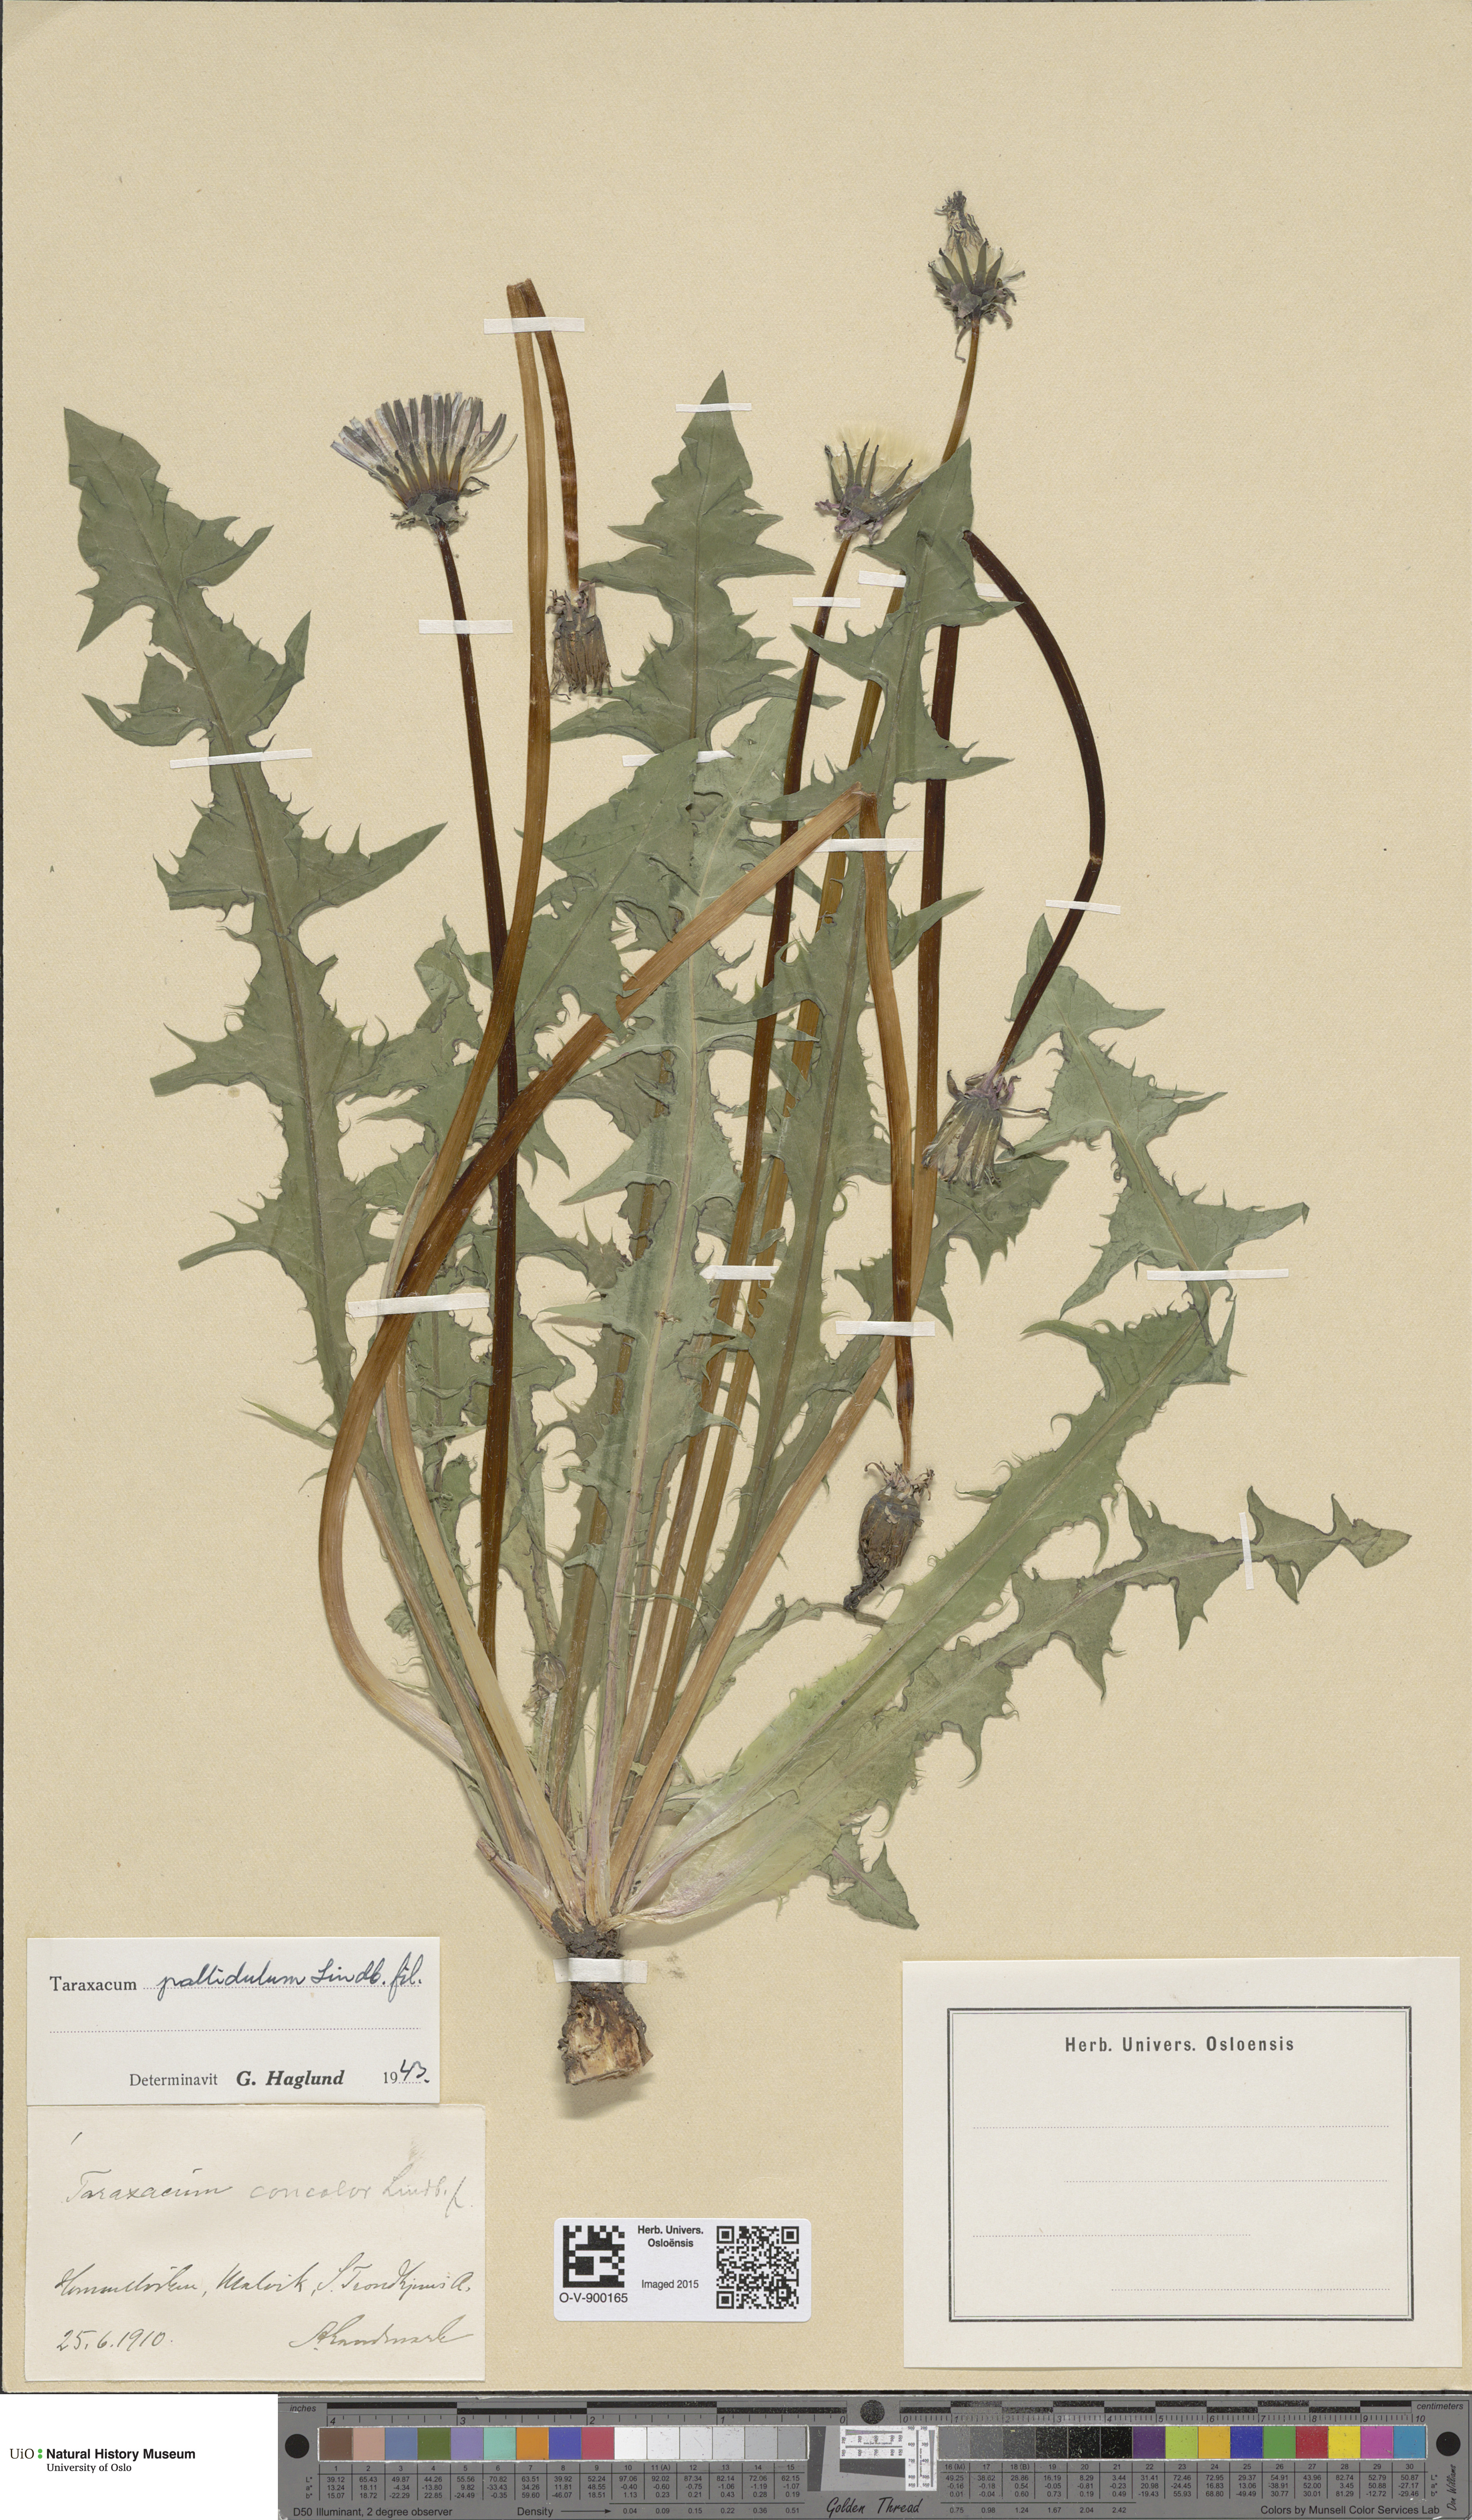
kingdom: Plantae
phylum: Tracheophyta
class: Magnoliopsida
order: Asterales
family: Asteraceae
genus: Taraxacum
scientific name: Taraxacum pallidulum
